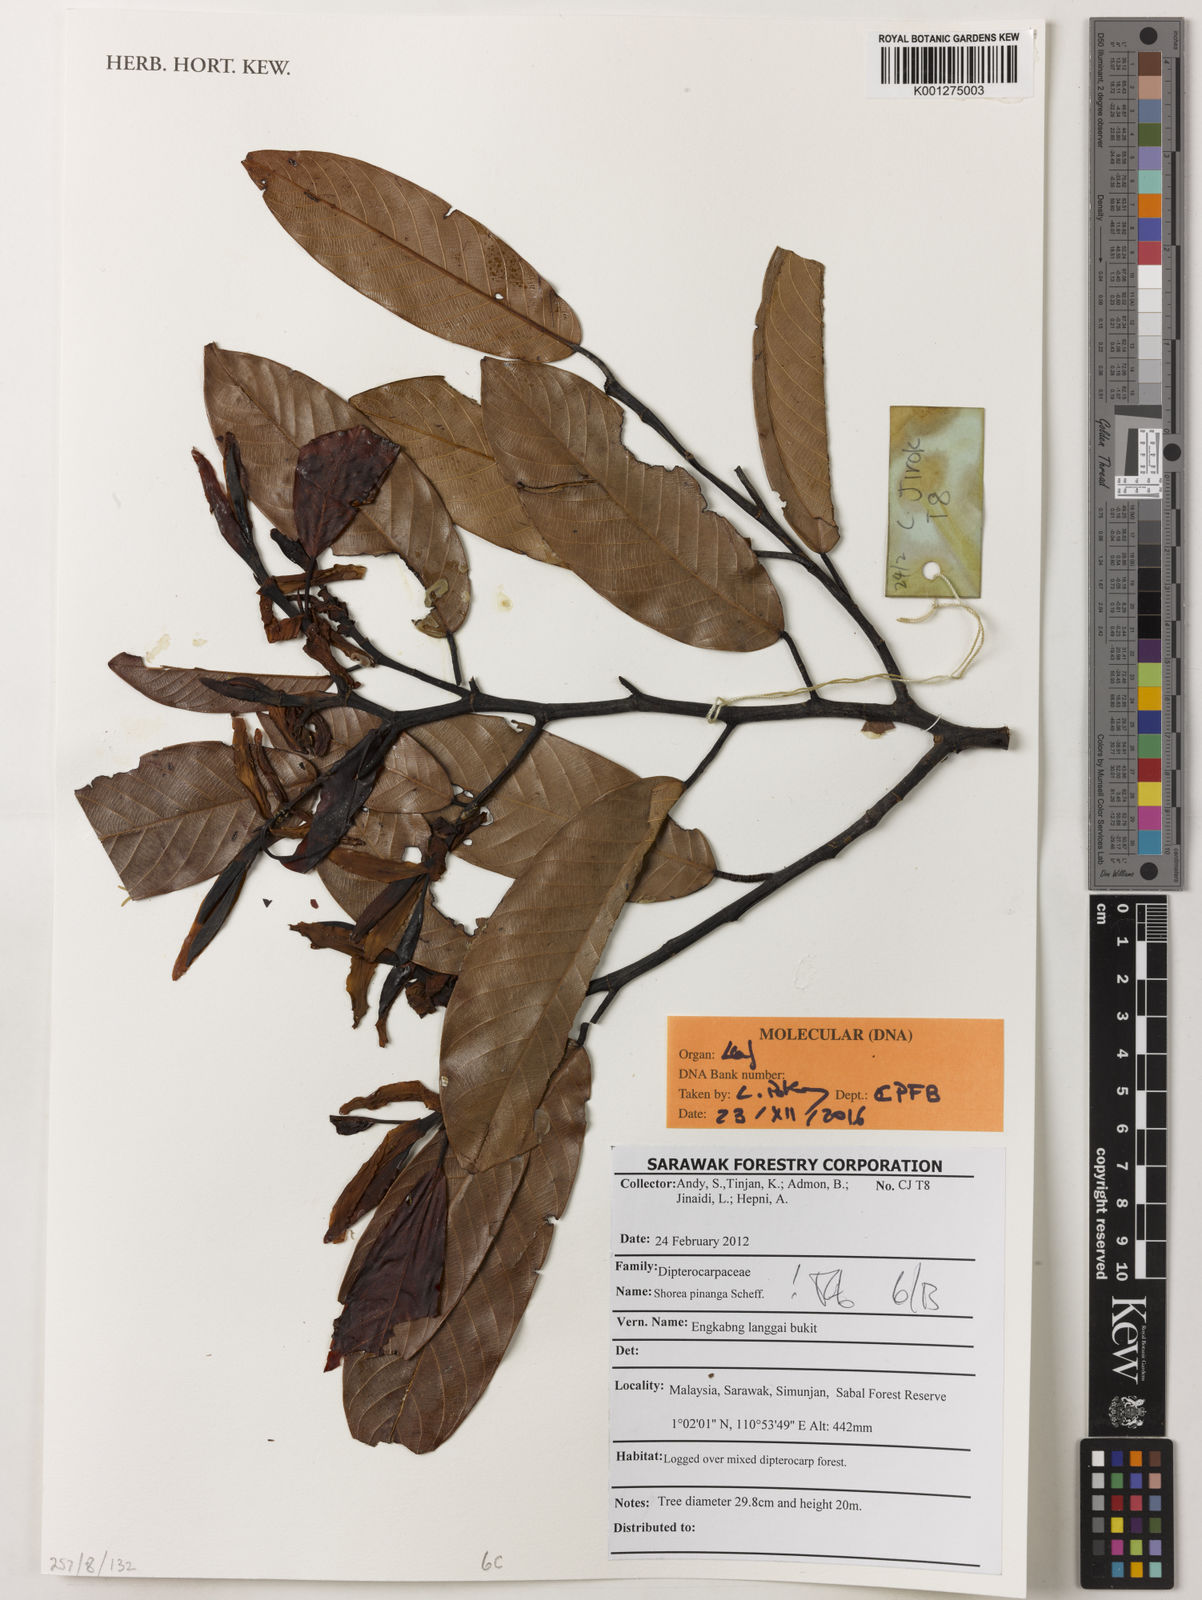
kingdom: Plantae
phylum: Tracheophyta
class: Magnoliopsida
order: Malvales
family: Dipterocarpaceae
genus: Shorea
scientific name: Shorea pinanga
